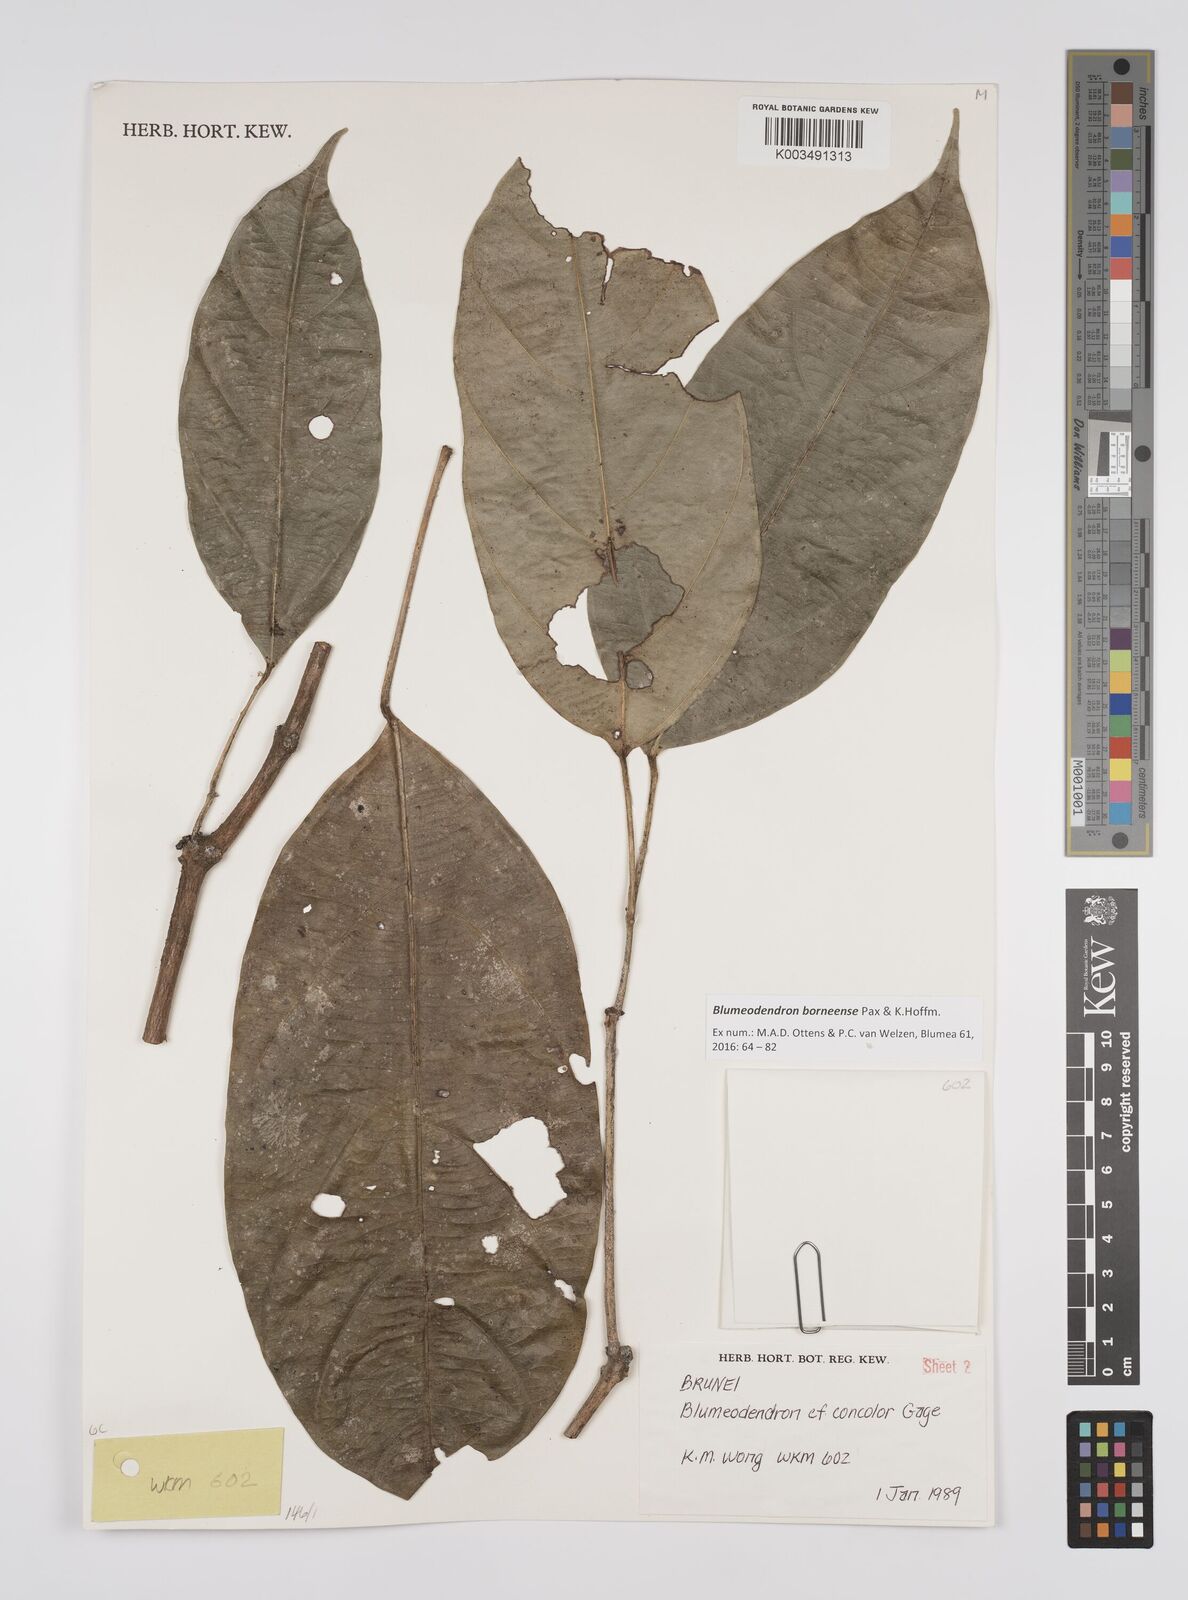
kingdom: Plantae
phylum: Tracheophyta
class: Magnoliopsida
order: Malpighiales
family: Euphorbiaceae
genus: Blumeodendron
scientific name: Blumeodendron borneense
